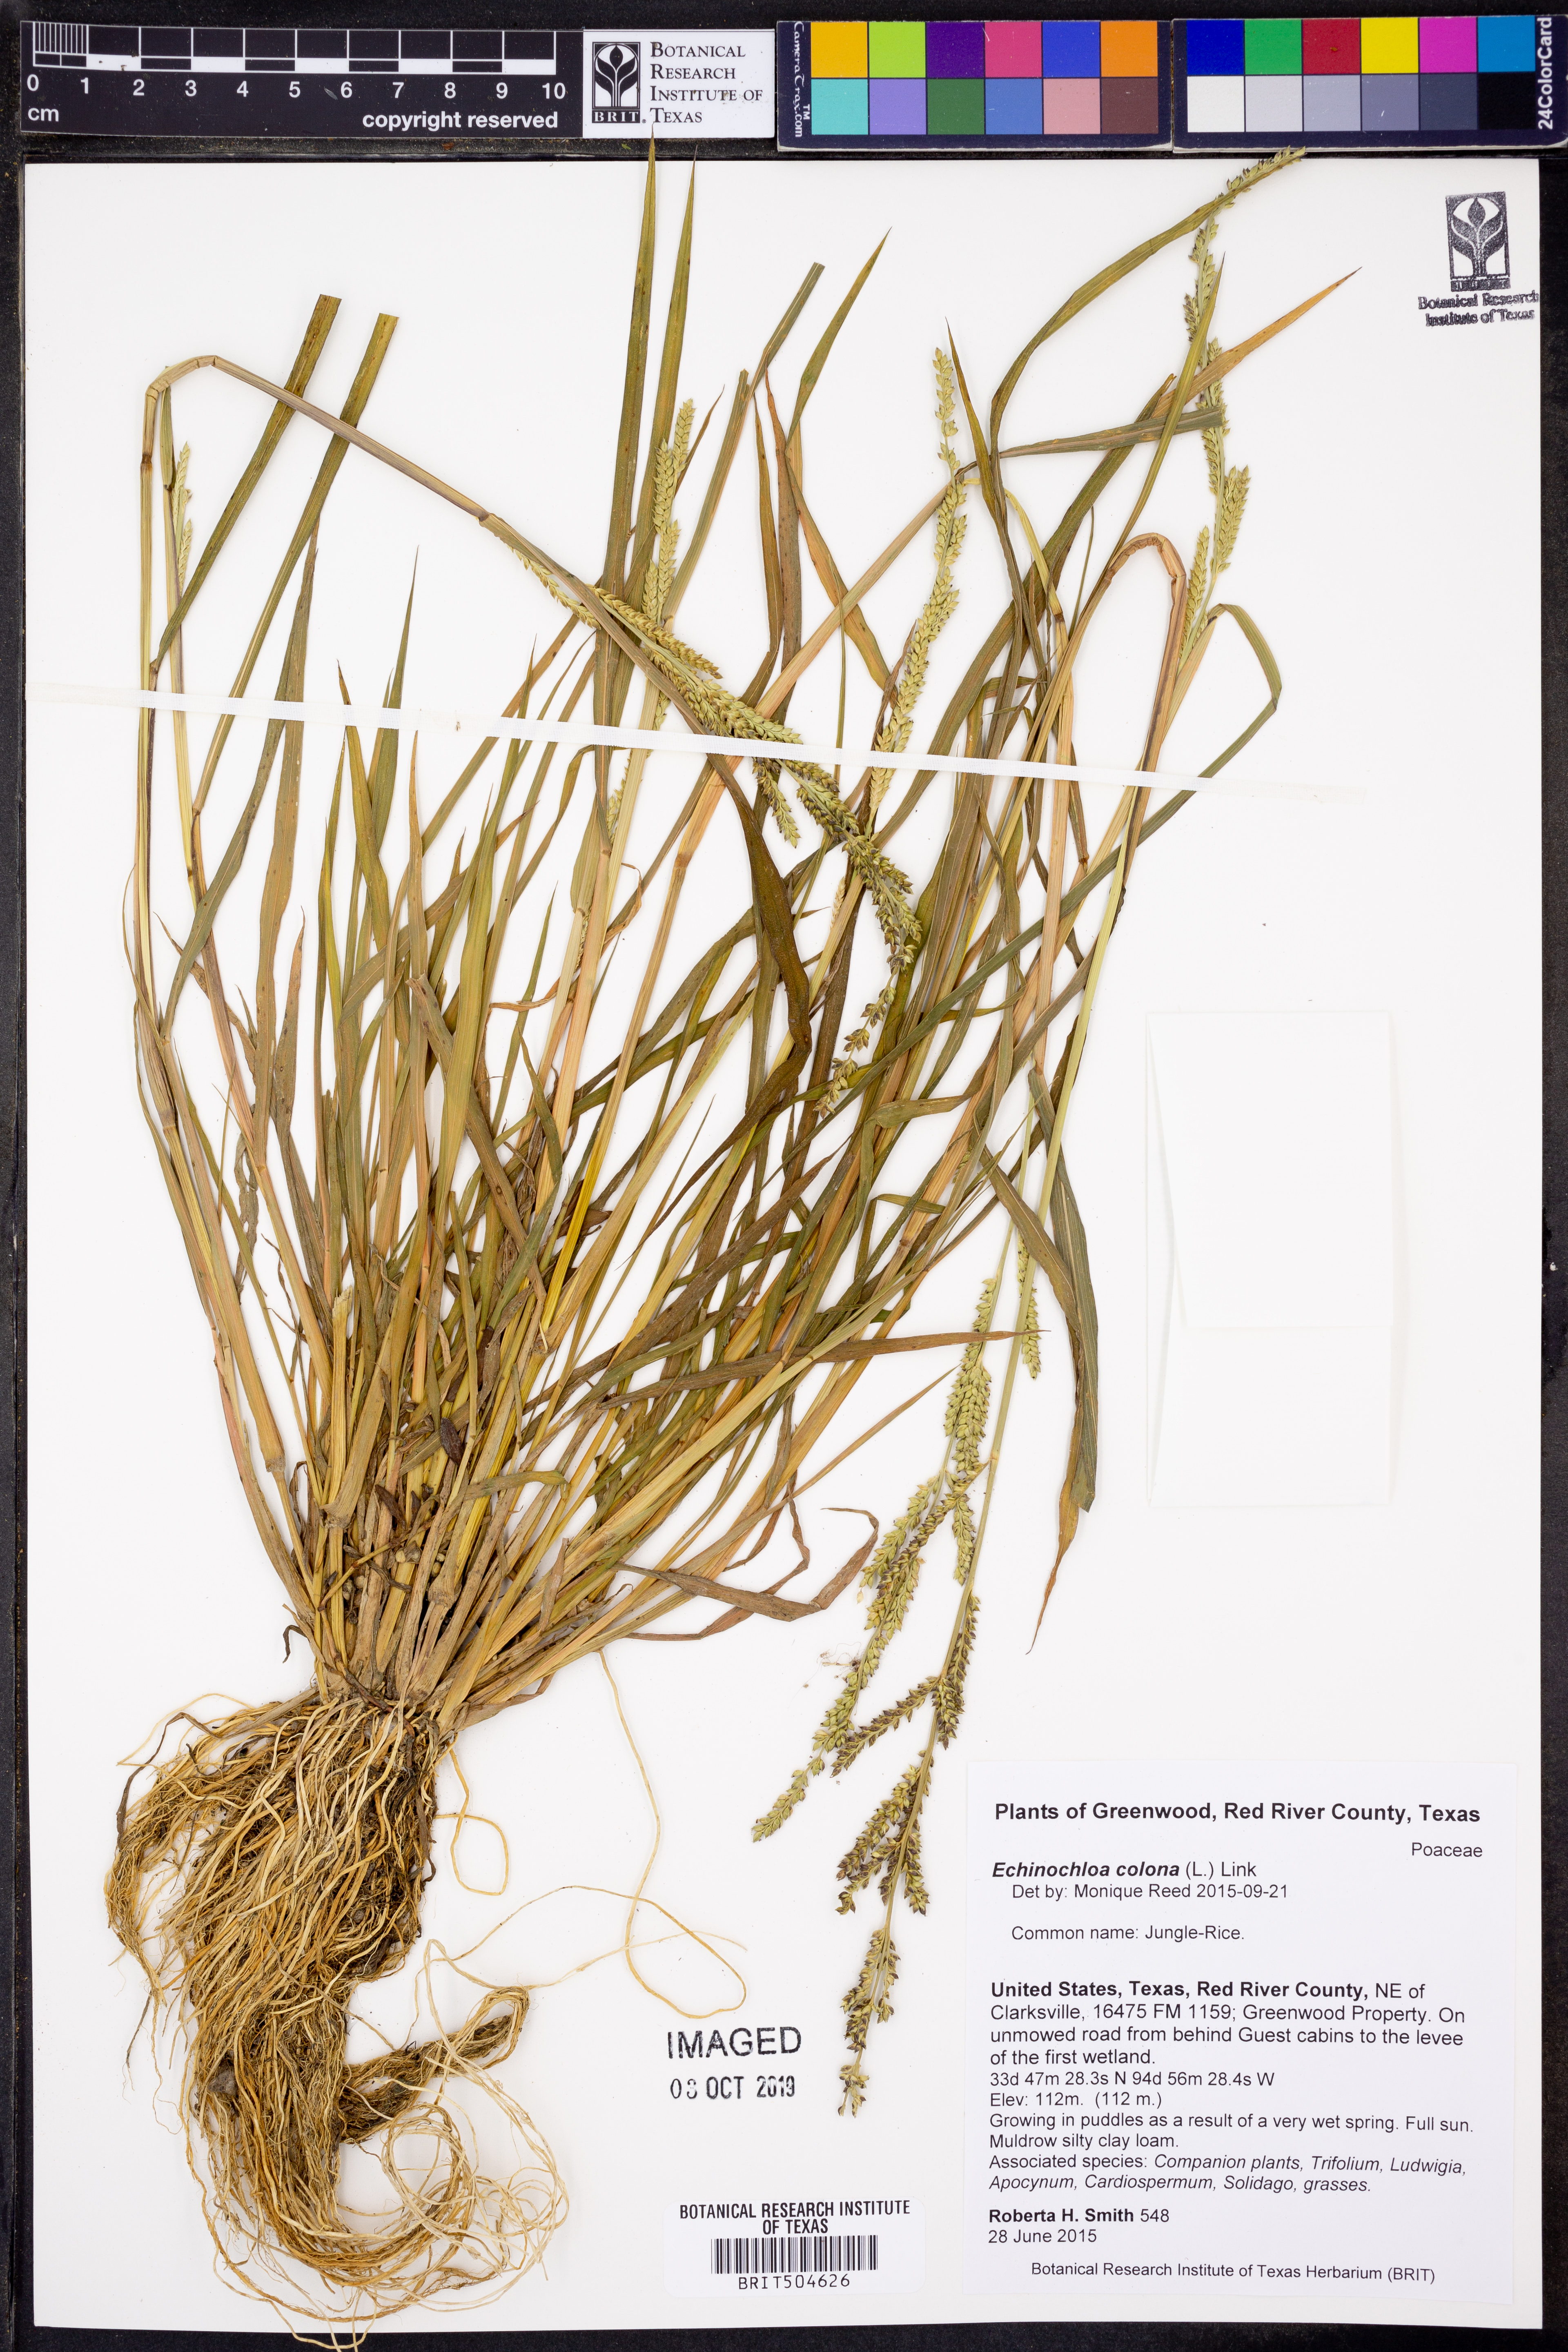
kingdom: Plantae
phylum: Tracheophyta
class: Liliopsida
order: Poales
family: Poaceae
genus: Echinochloa
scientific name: Echinochloa colonum
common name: Jungle rice
